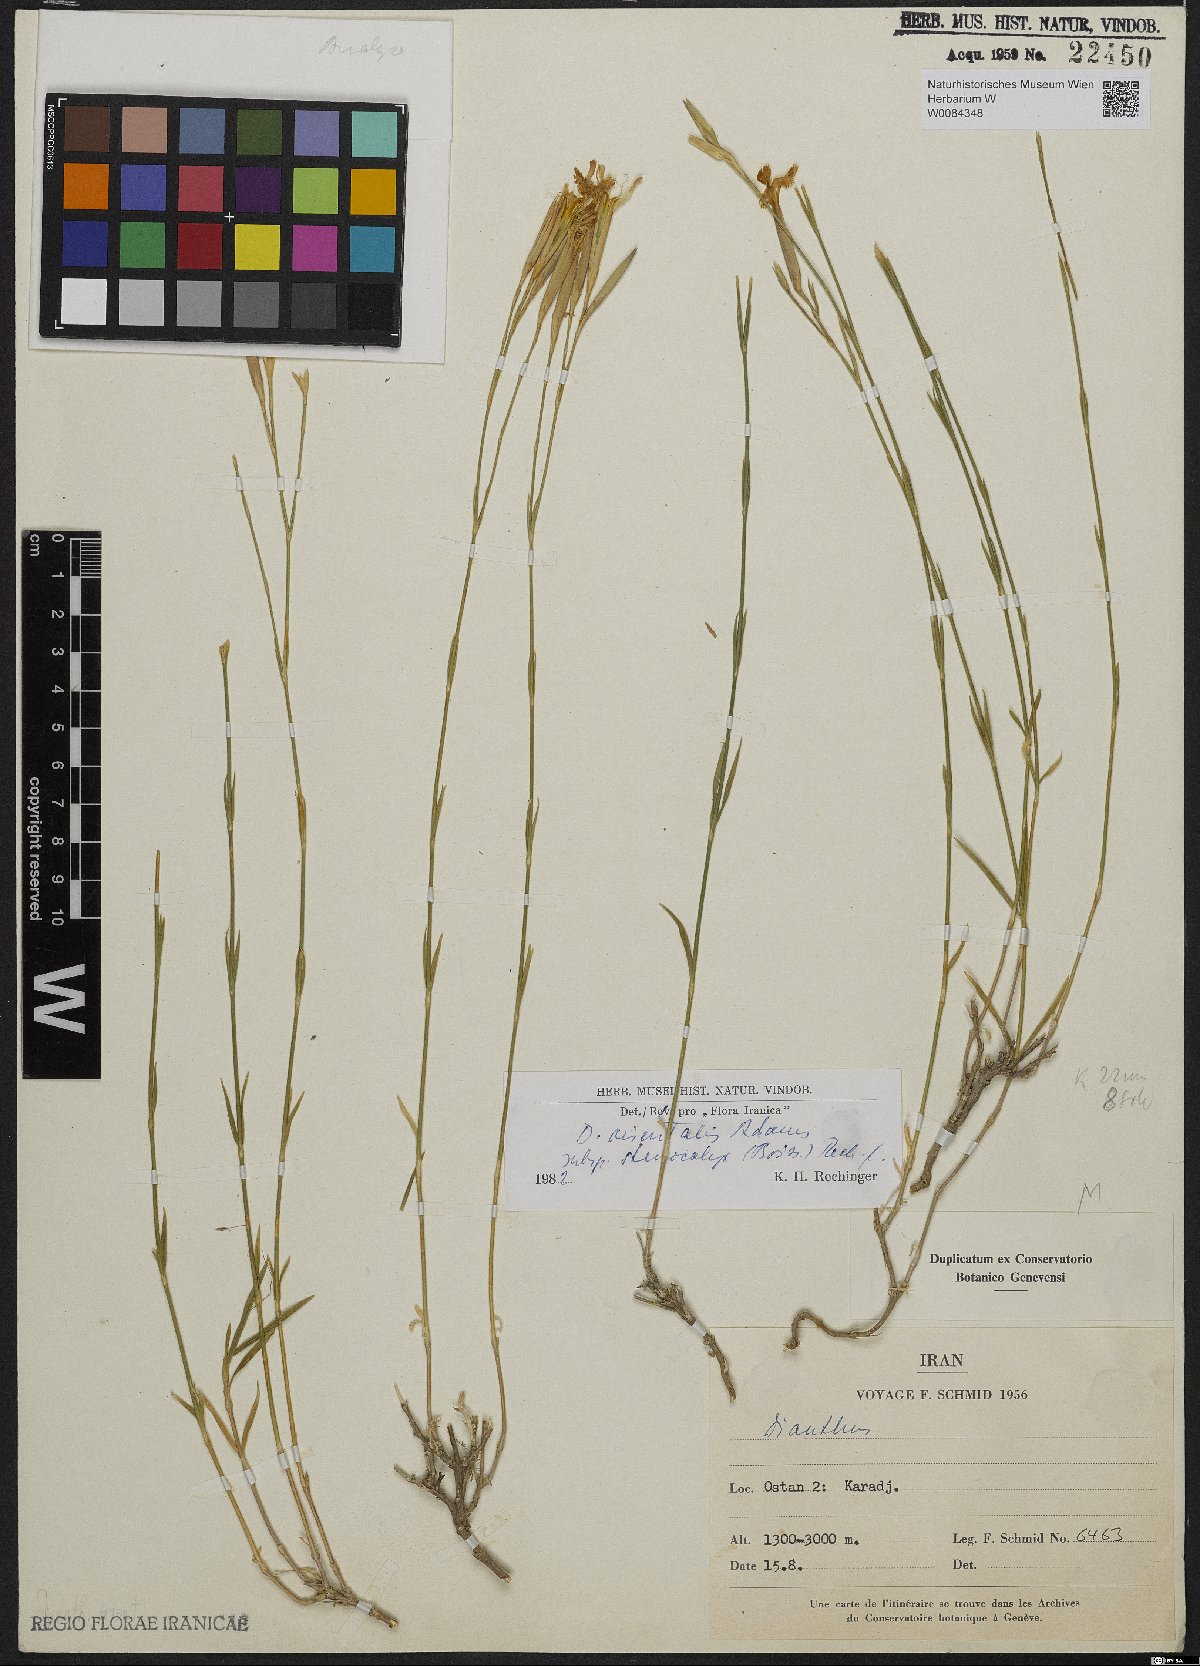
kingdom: Plantae
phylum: Tracheophyta
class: Magnoliopsida
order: Caryophyllales
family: Caryophyllaceae
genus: Dianthus
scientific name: Dianthus orientalis
